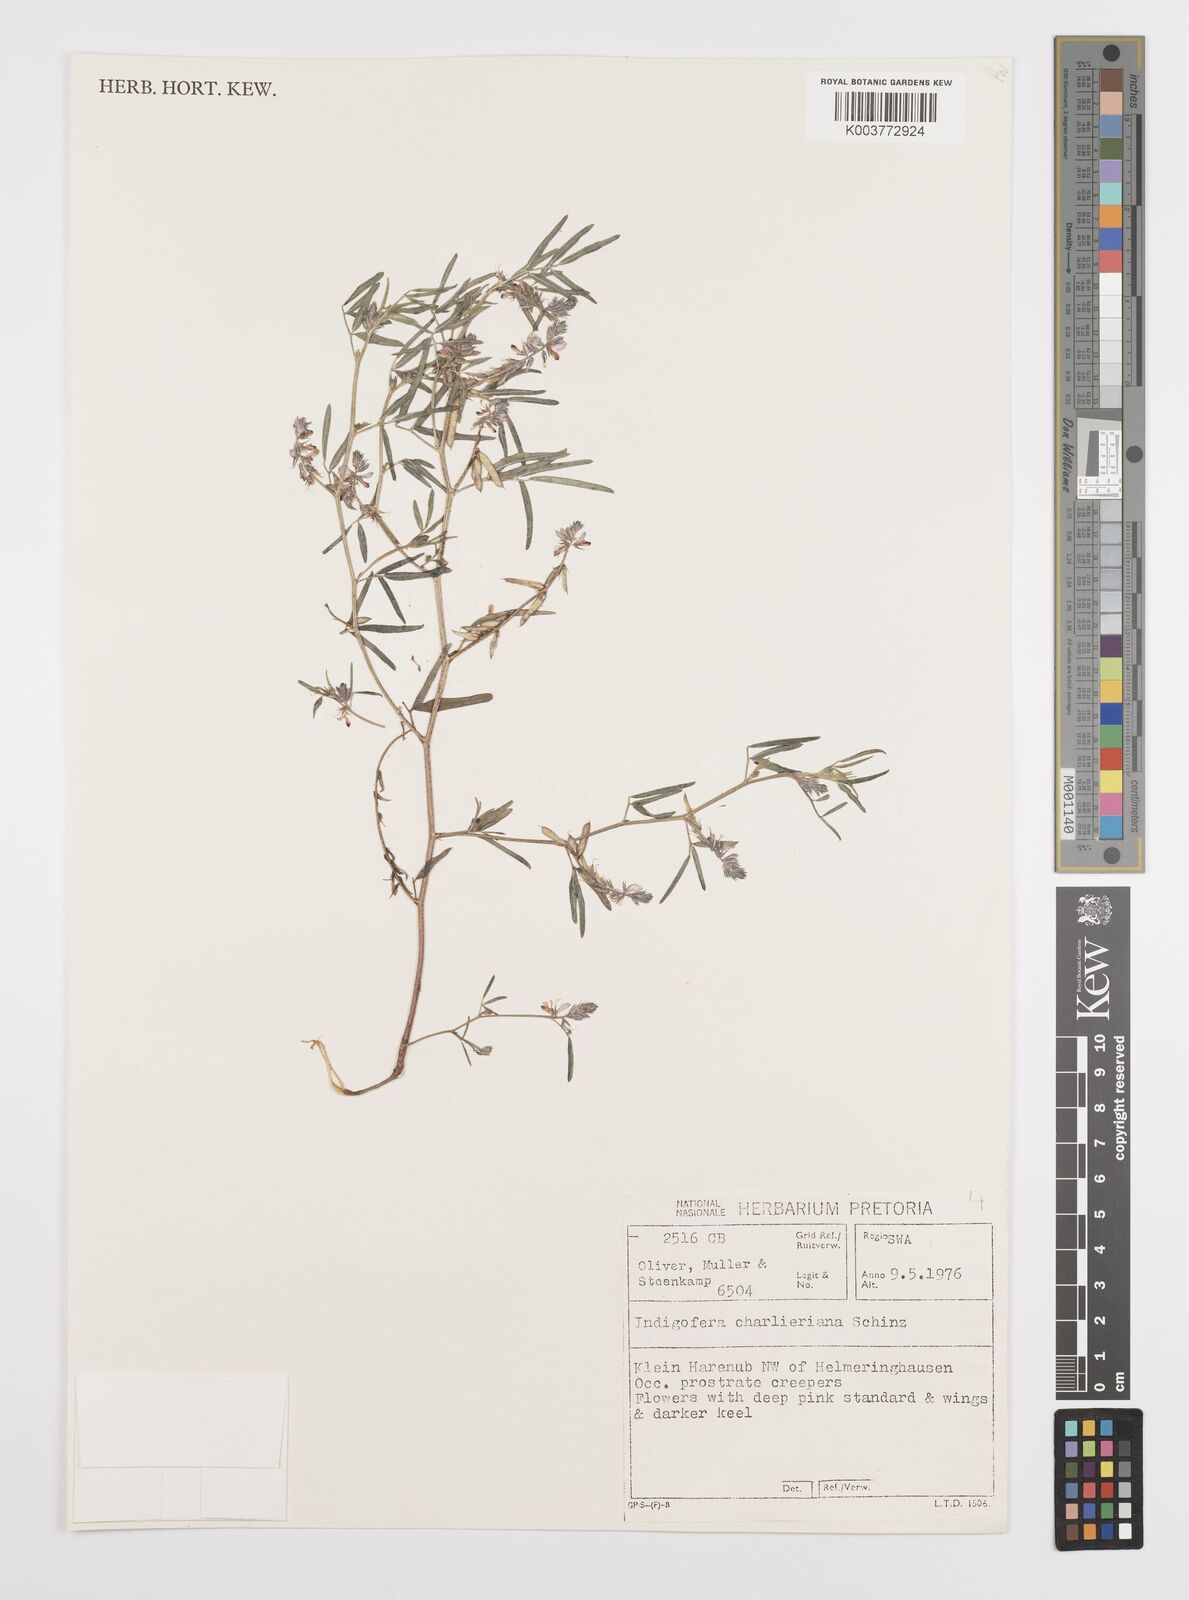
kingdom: Plantae
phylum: Tracheophyta
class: Magnoliopsida
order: Fabales
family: Fabaceae
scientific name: Fabaceae
